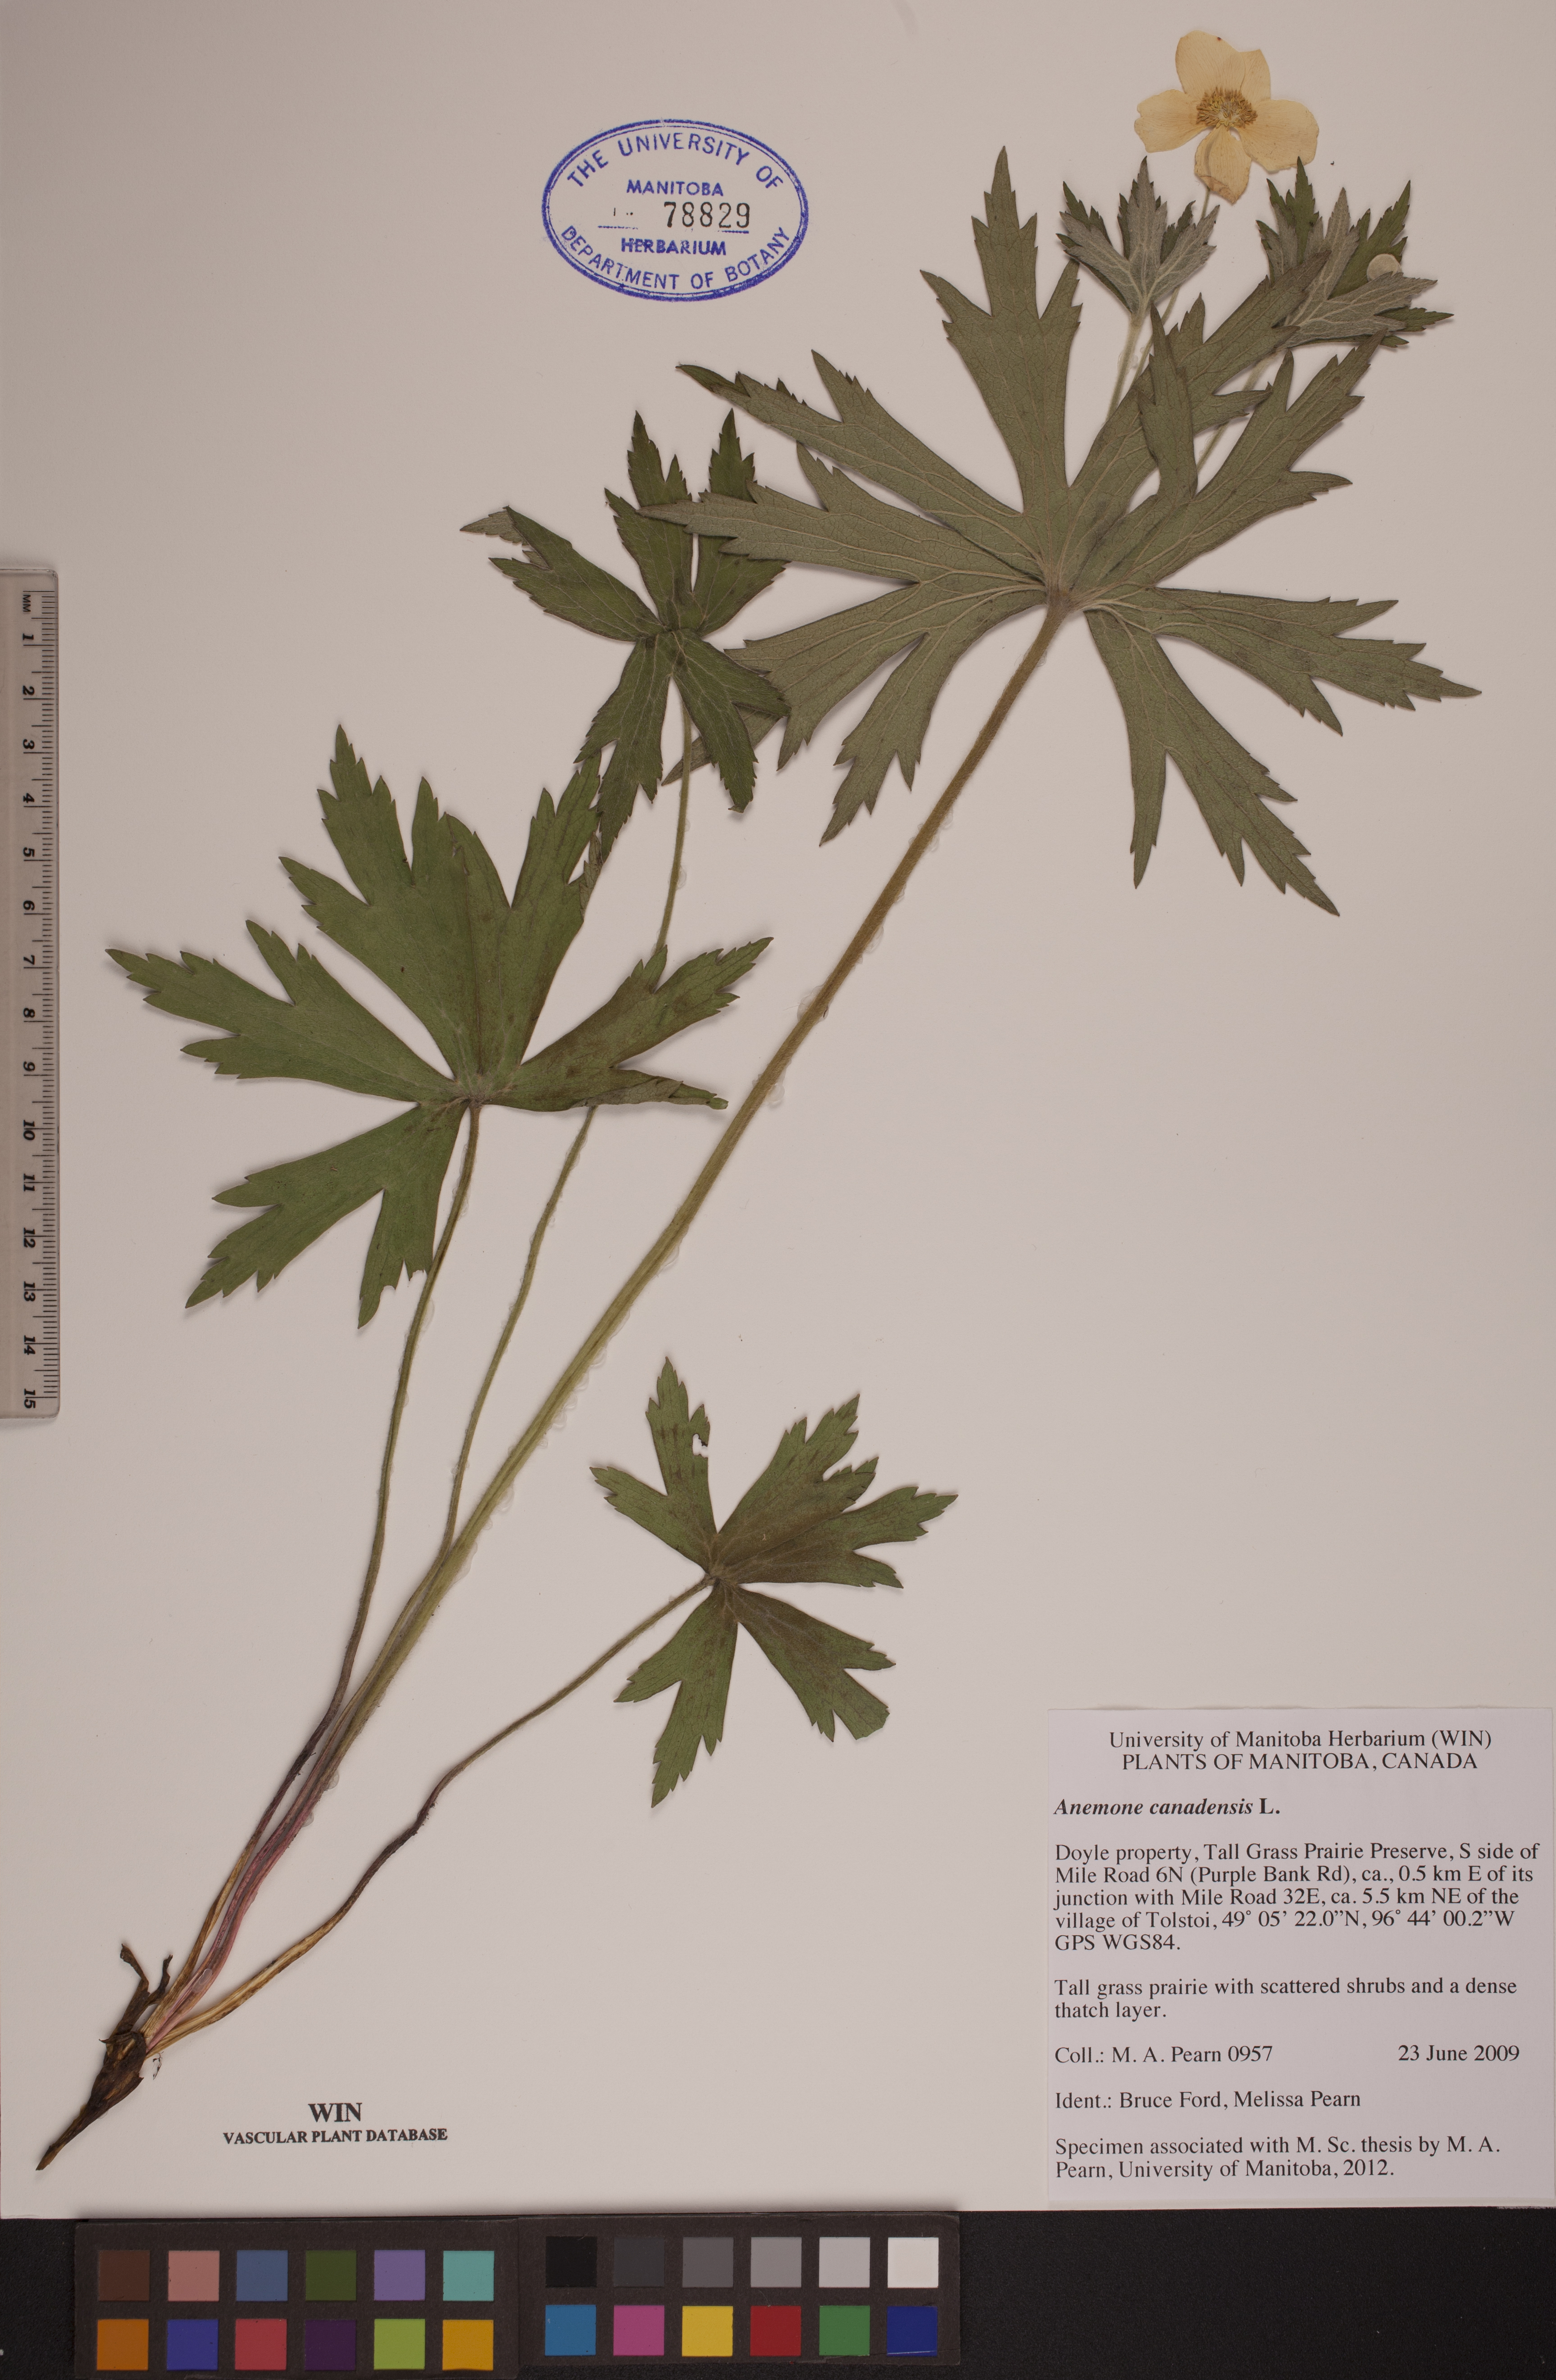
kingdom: Plantae
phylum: Tracheophyta
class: Magnoliopsida
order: Ranunculales
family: Ranunculaceae
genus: Anemonastrum
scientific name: Anemonastrum canadense
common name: Canada anemone
